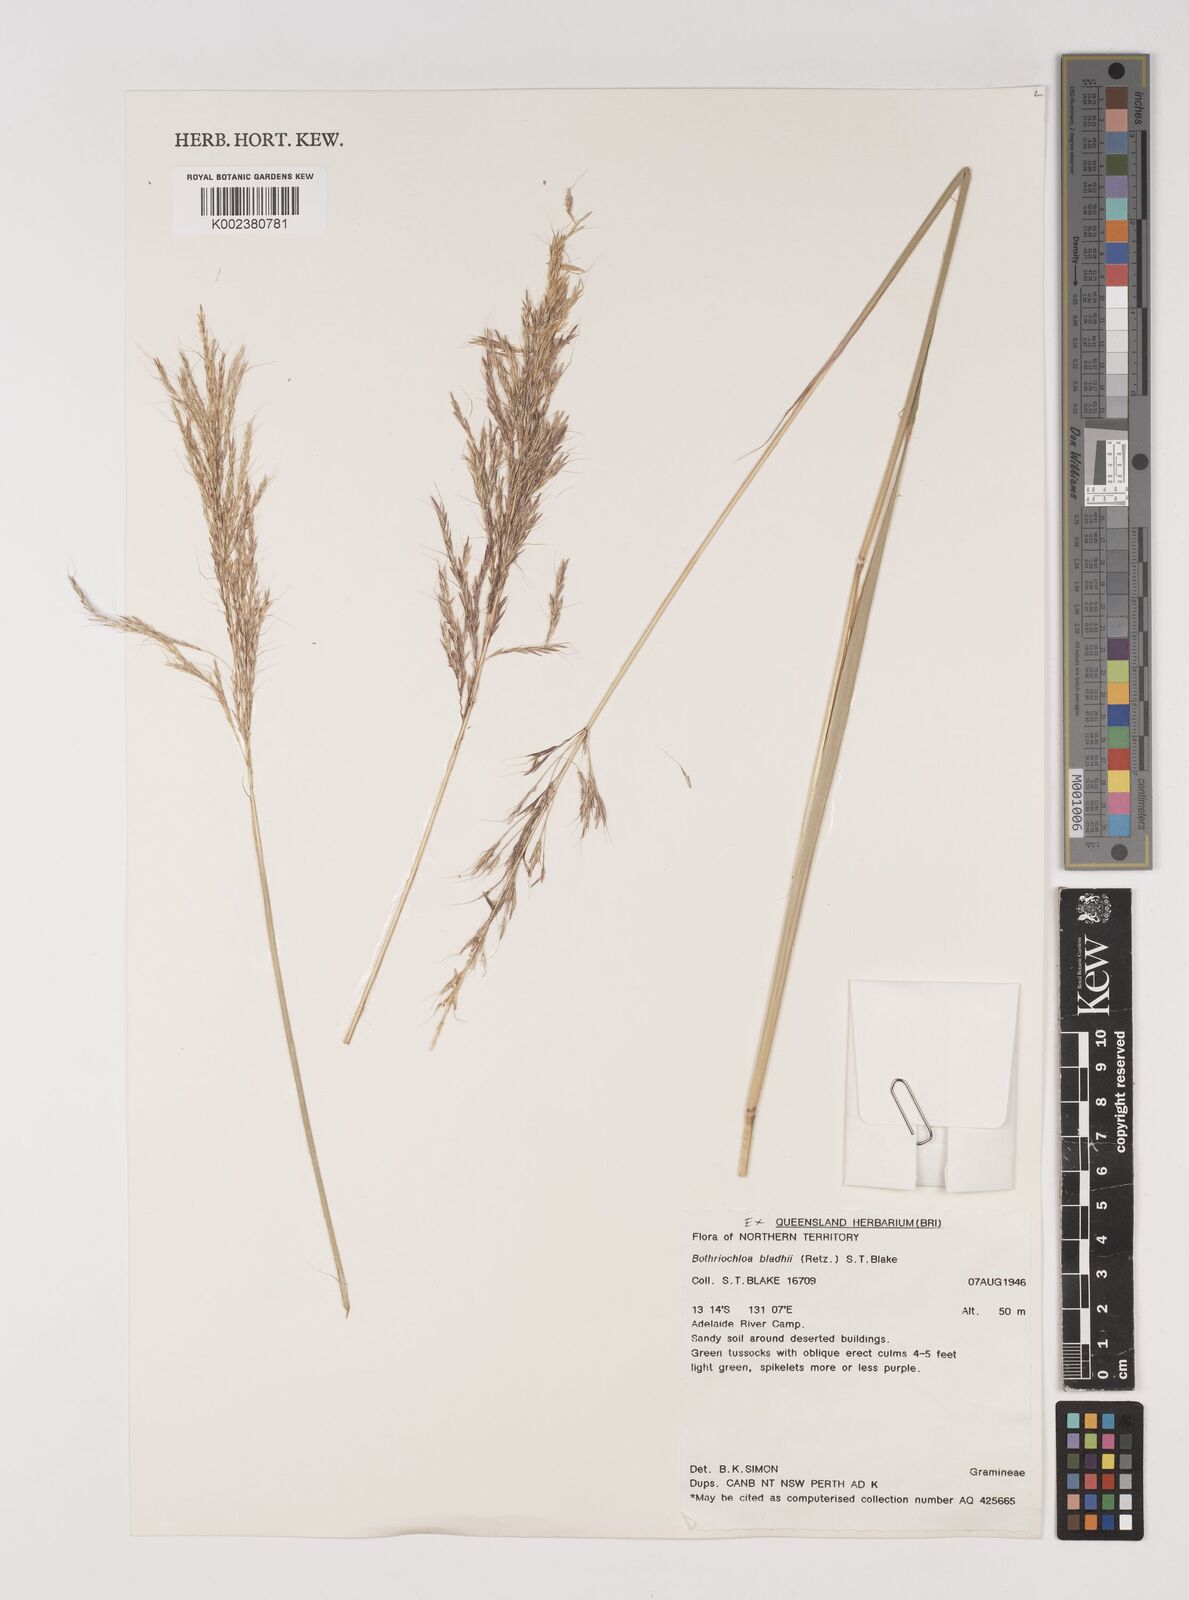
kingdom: Plantae
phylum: Tracheophyta
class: Liliopsida
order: Poales
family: Poaceae
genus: Bothriochloa
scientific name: Bothriochloa bladhii
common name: Caucasian bluestem
